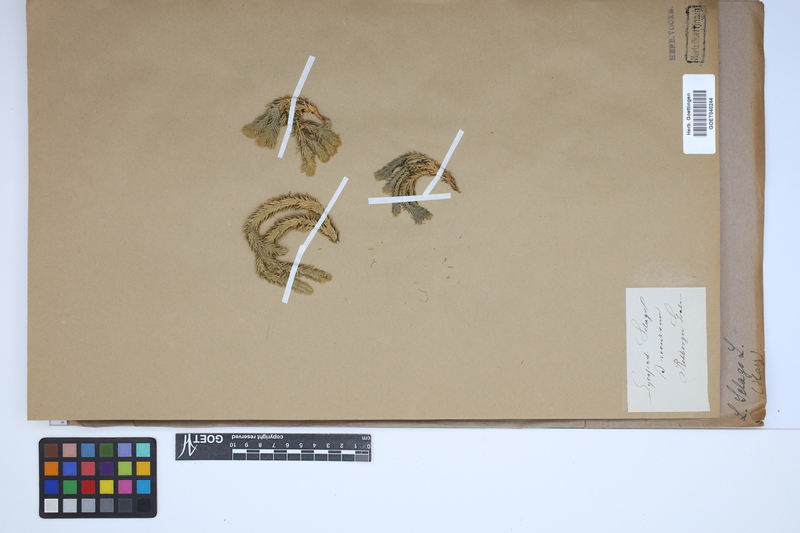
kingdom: Plantae
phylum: Tracheophyta
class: Lycopodiopsida
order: Lycopodiales
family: Lycopodiaceae
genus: Huperzia
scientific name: Huperzia selago
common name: Northern firmoss
